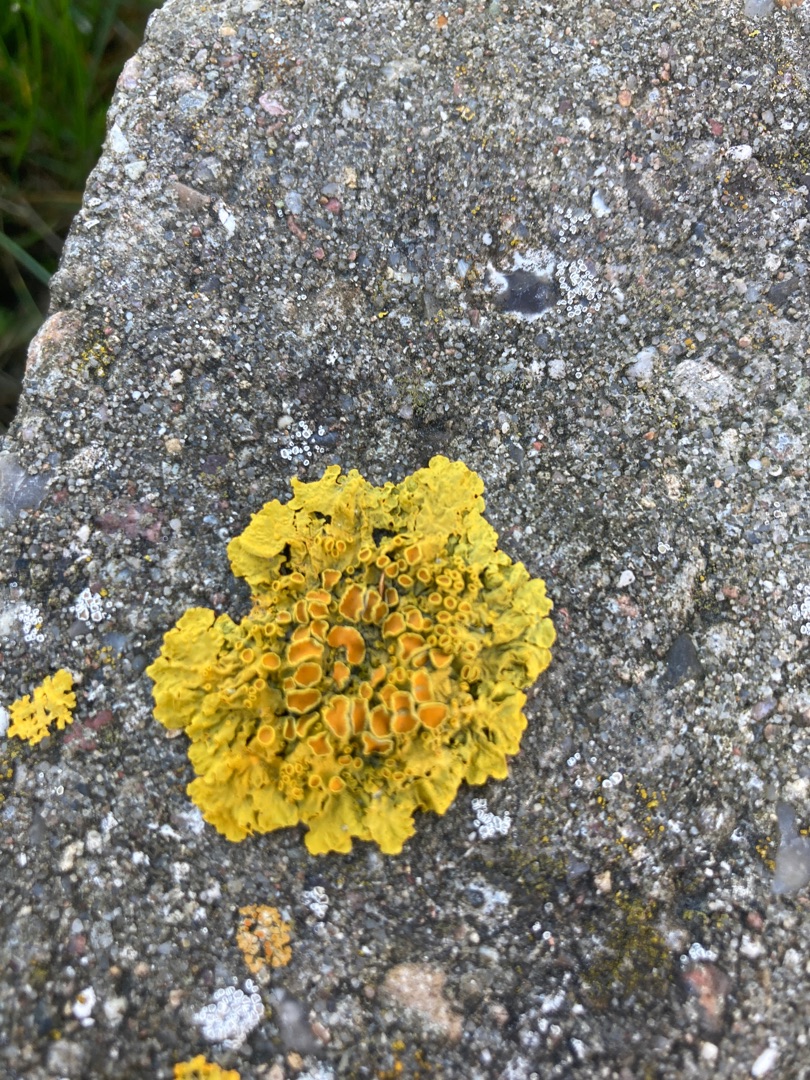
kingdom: Fungi
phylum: Ascomycota
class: Lecanoromycetes
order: Teloschistales
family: Teloschistaceae
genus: Xanthoria
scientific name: Xanthoria parietina
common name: Almindelig væggelav
